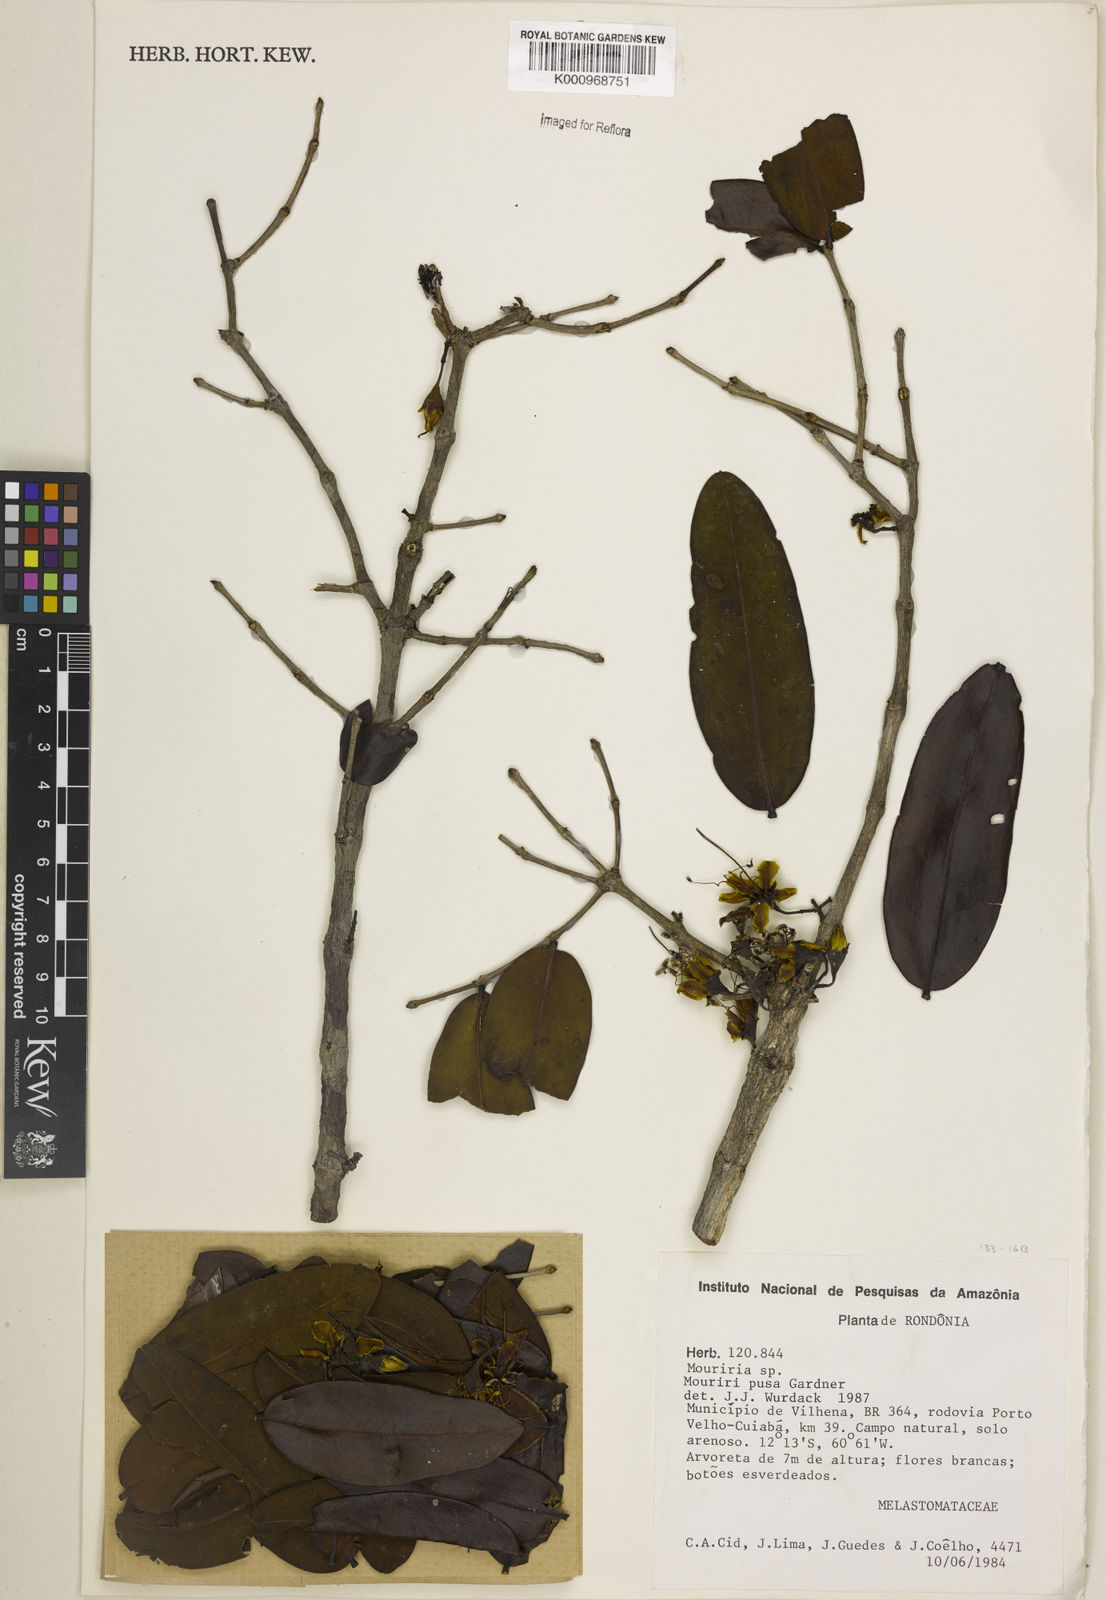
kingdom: Plantae
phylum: Tracheophyta
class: Magnoliopsida
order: Myrtales
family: Melastomataceae
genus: Mouriri
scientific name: Mouriri pusa
